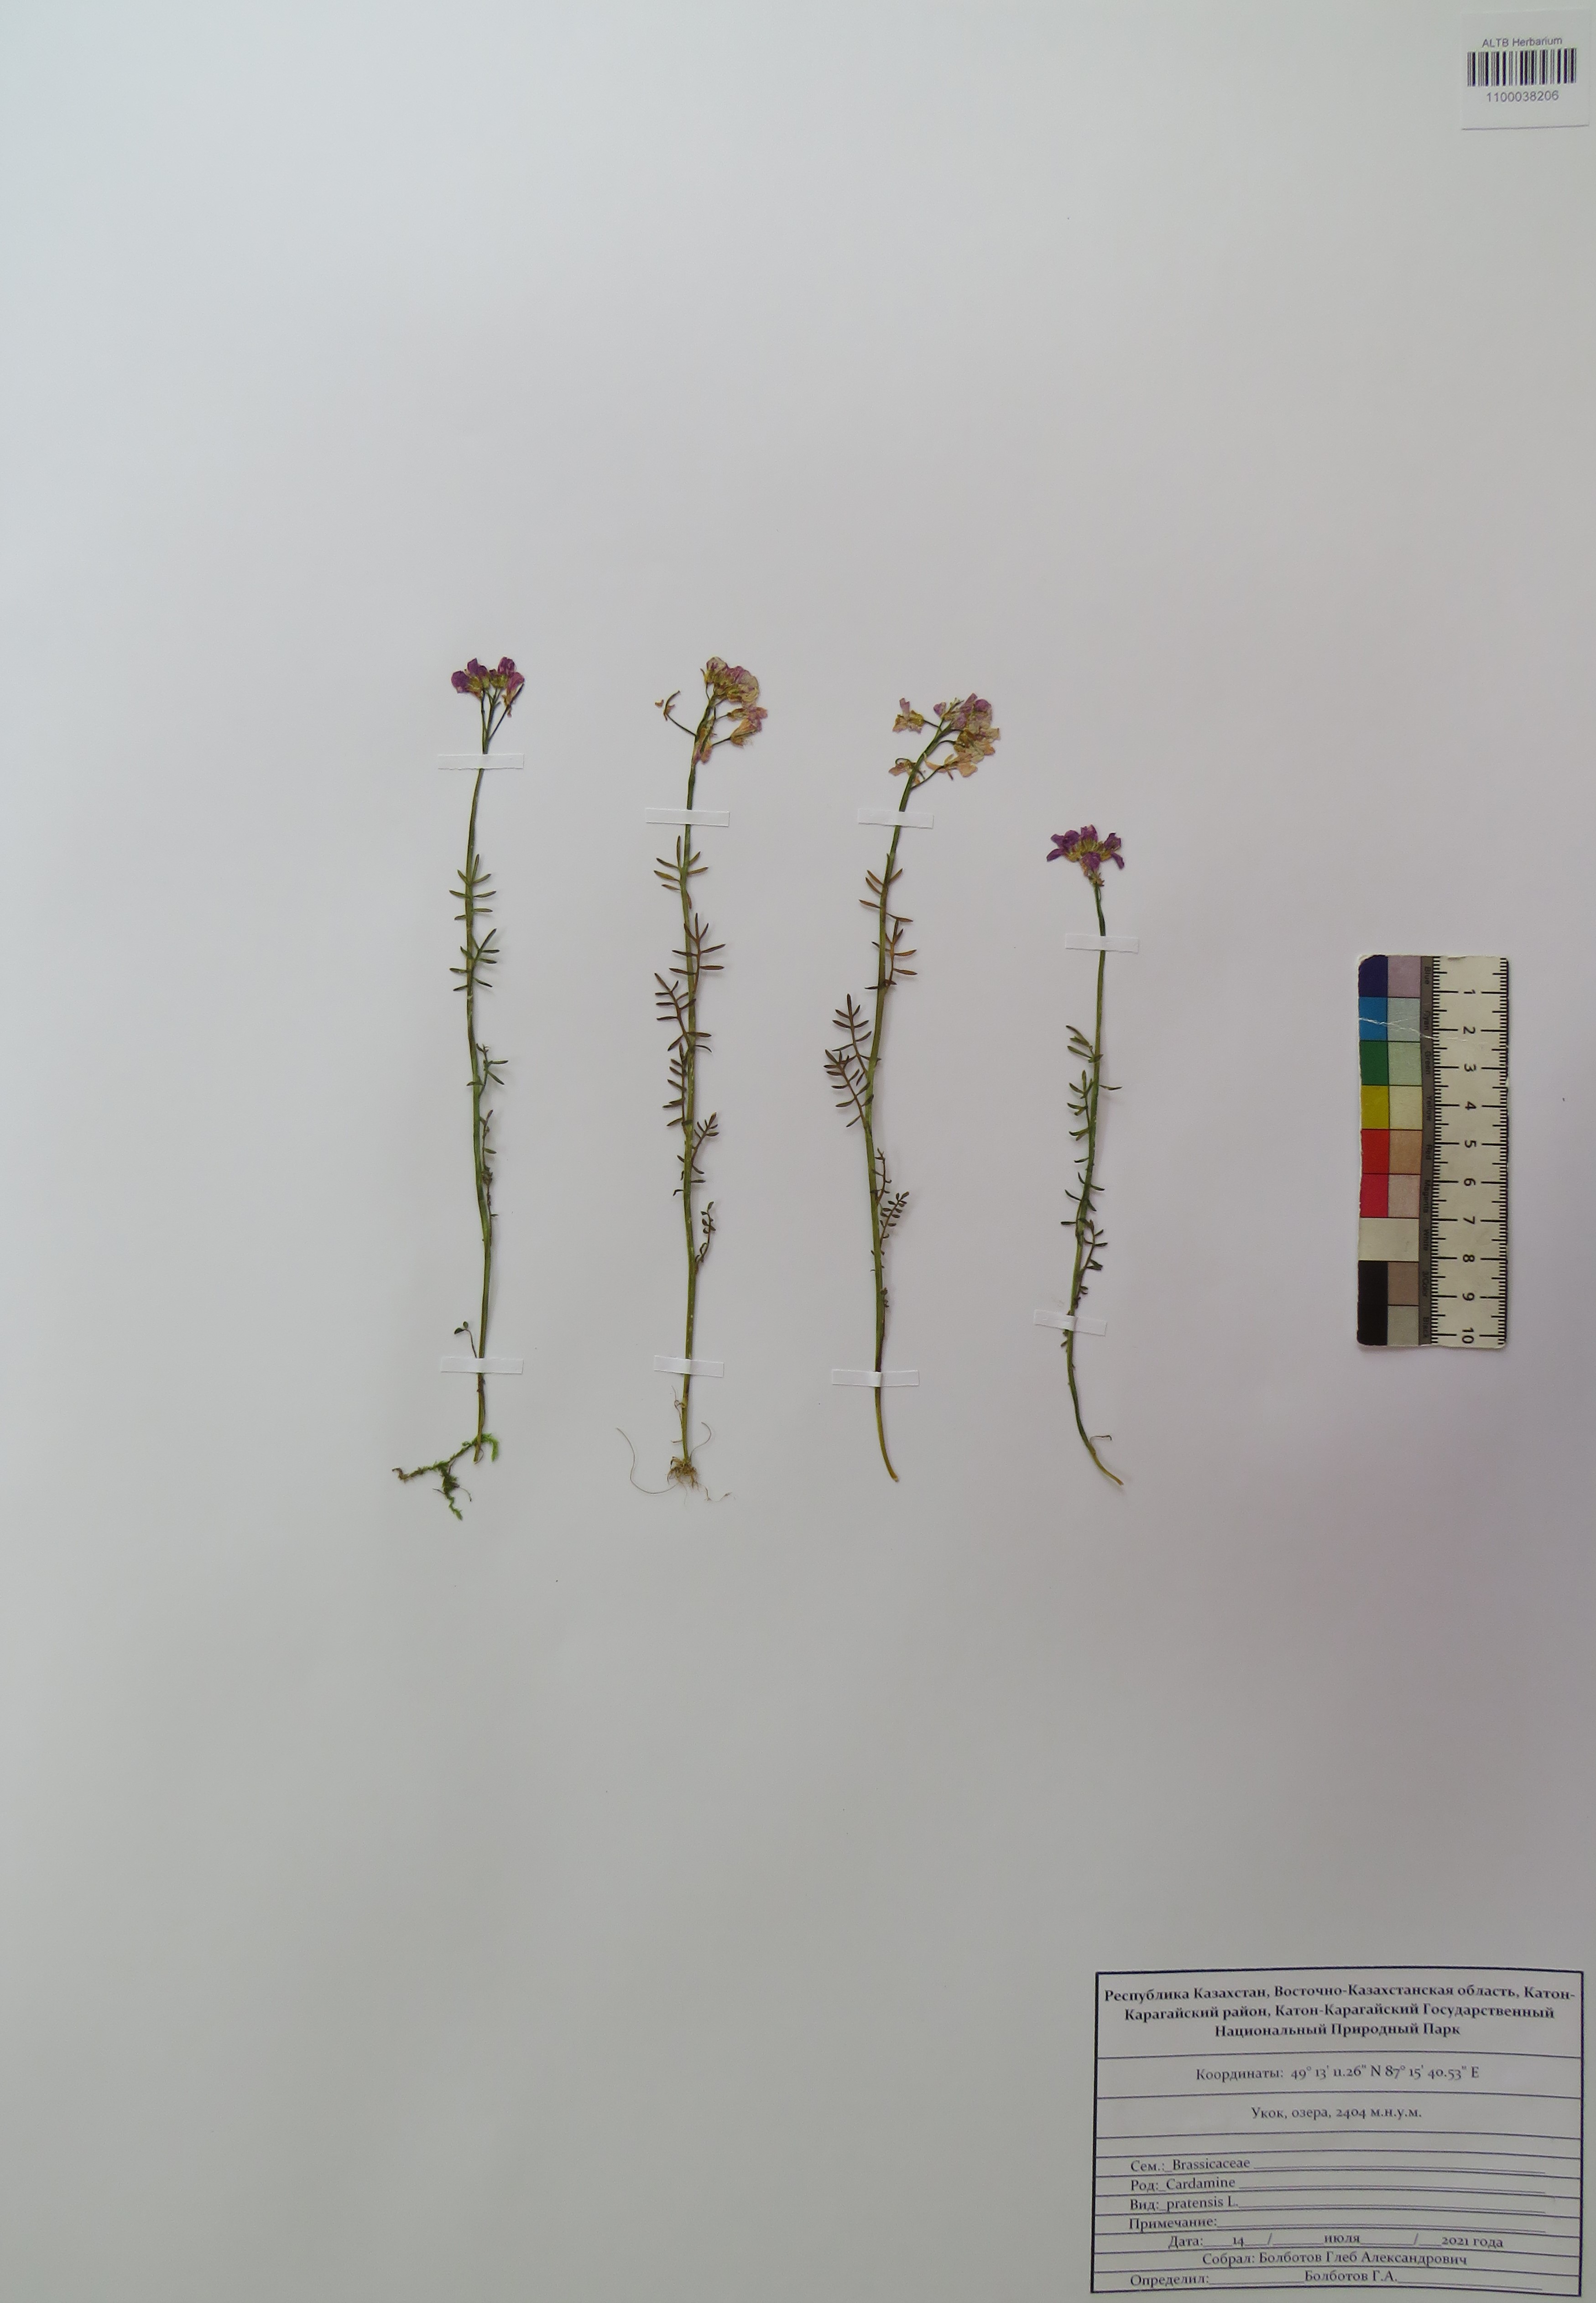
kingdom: Plantae
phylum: Tracheophyta
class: Magnoliopsida
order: Brassicales
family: Brassicaceae
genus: Cardamine
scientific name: Cardamine pratensis
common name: Cuckoo flower
